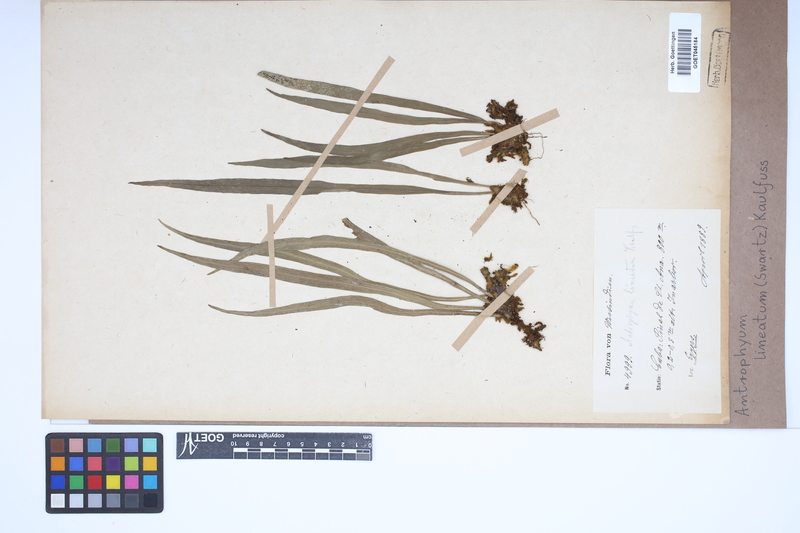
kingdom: Plantae
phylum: Tracheophyta
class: Polypodiopsida
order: Polypodiales
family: Pteridaceae
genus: Polytaenium
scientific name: Polytaenium lineatum
